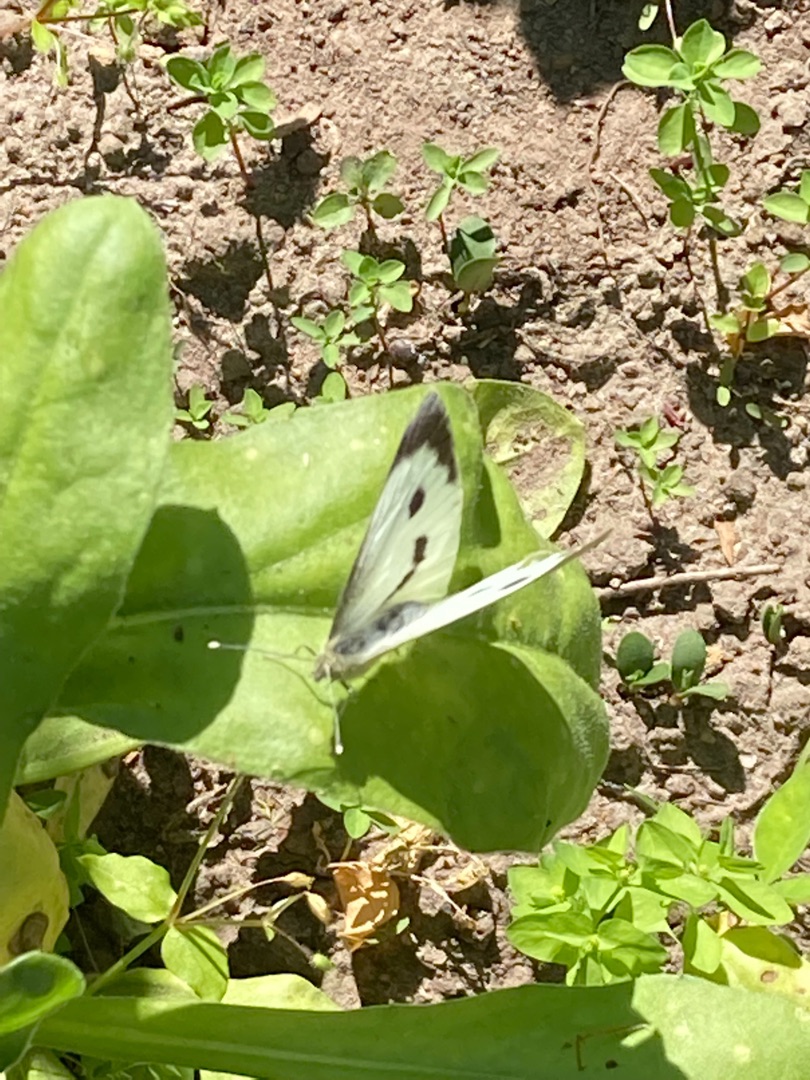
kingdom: Animalia
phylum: Arthropoda
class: Insecta
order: Lepidoptera
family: Pieridae
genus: Pieris
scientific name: Pieris brassicae
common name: Stor kålsommerfugl
